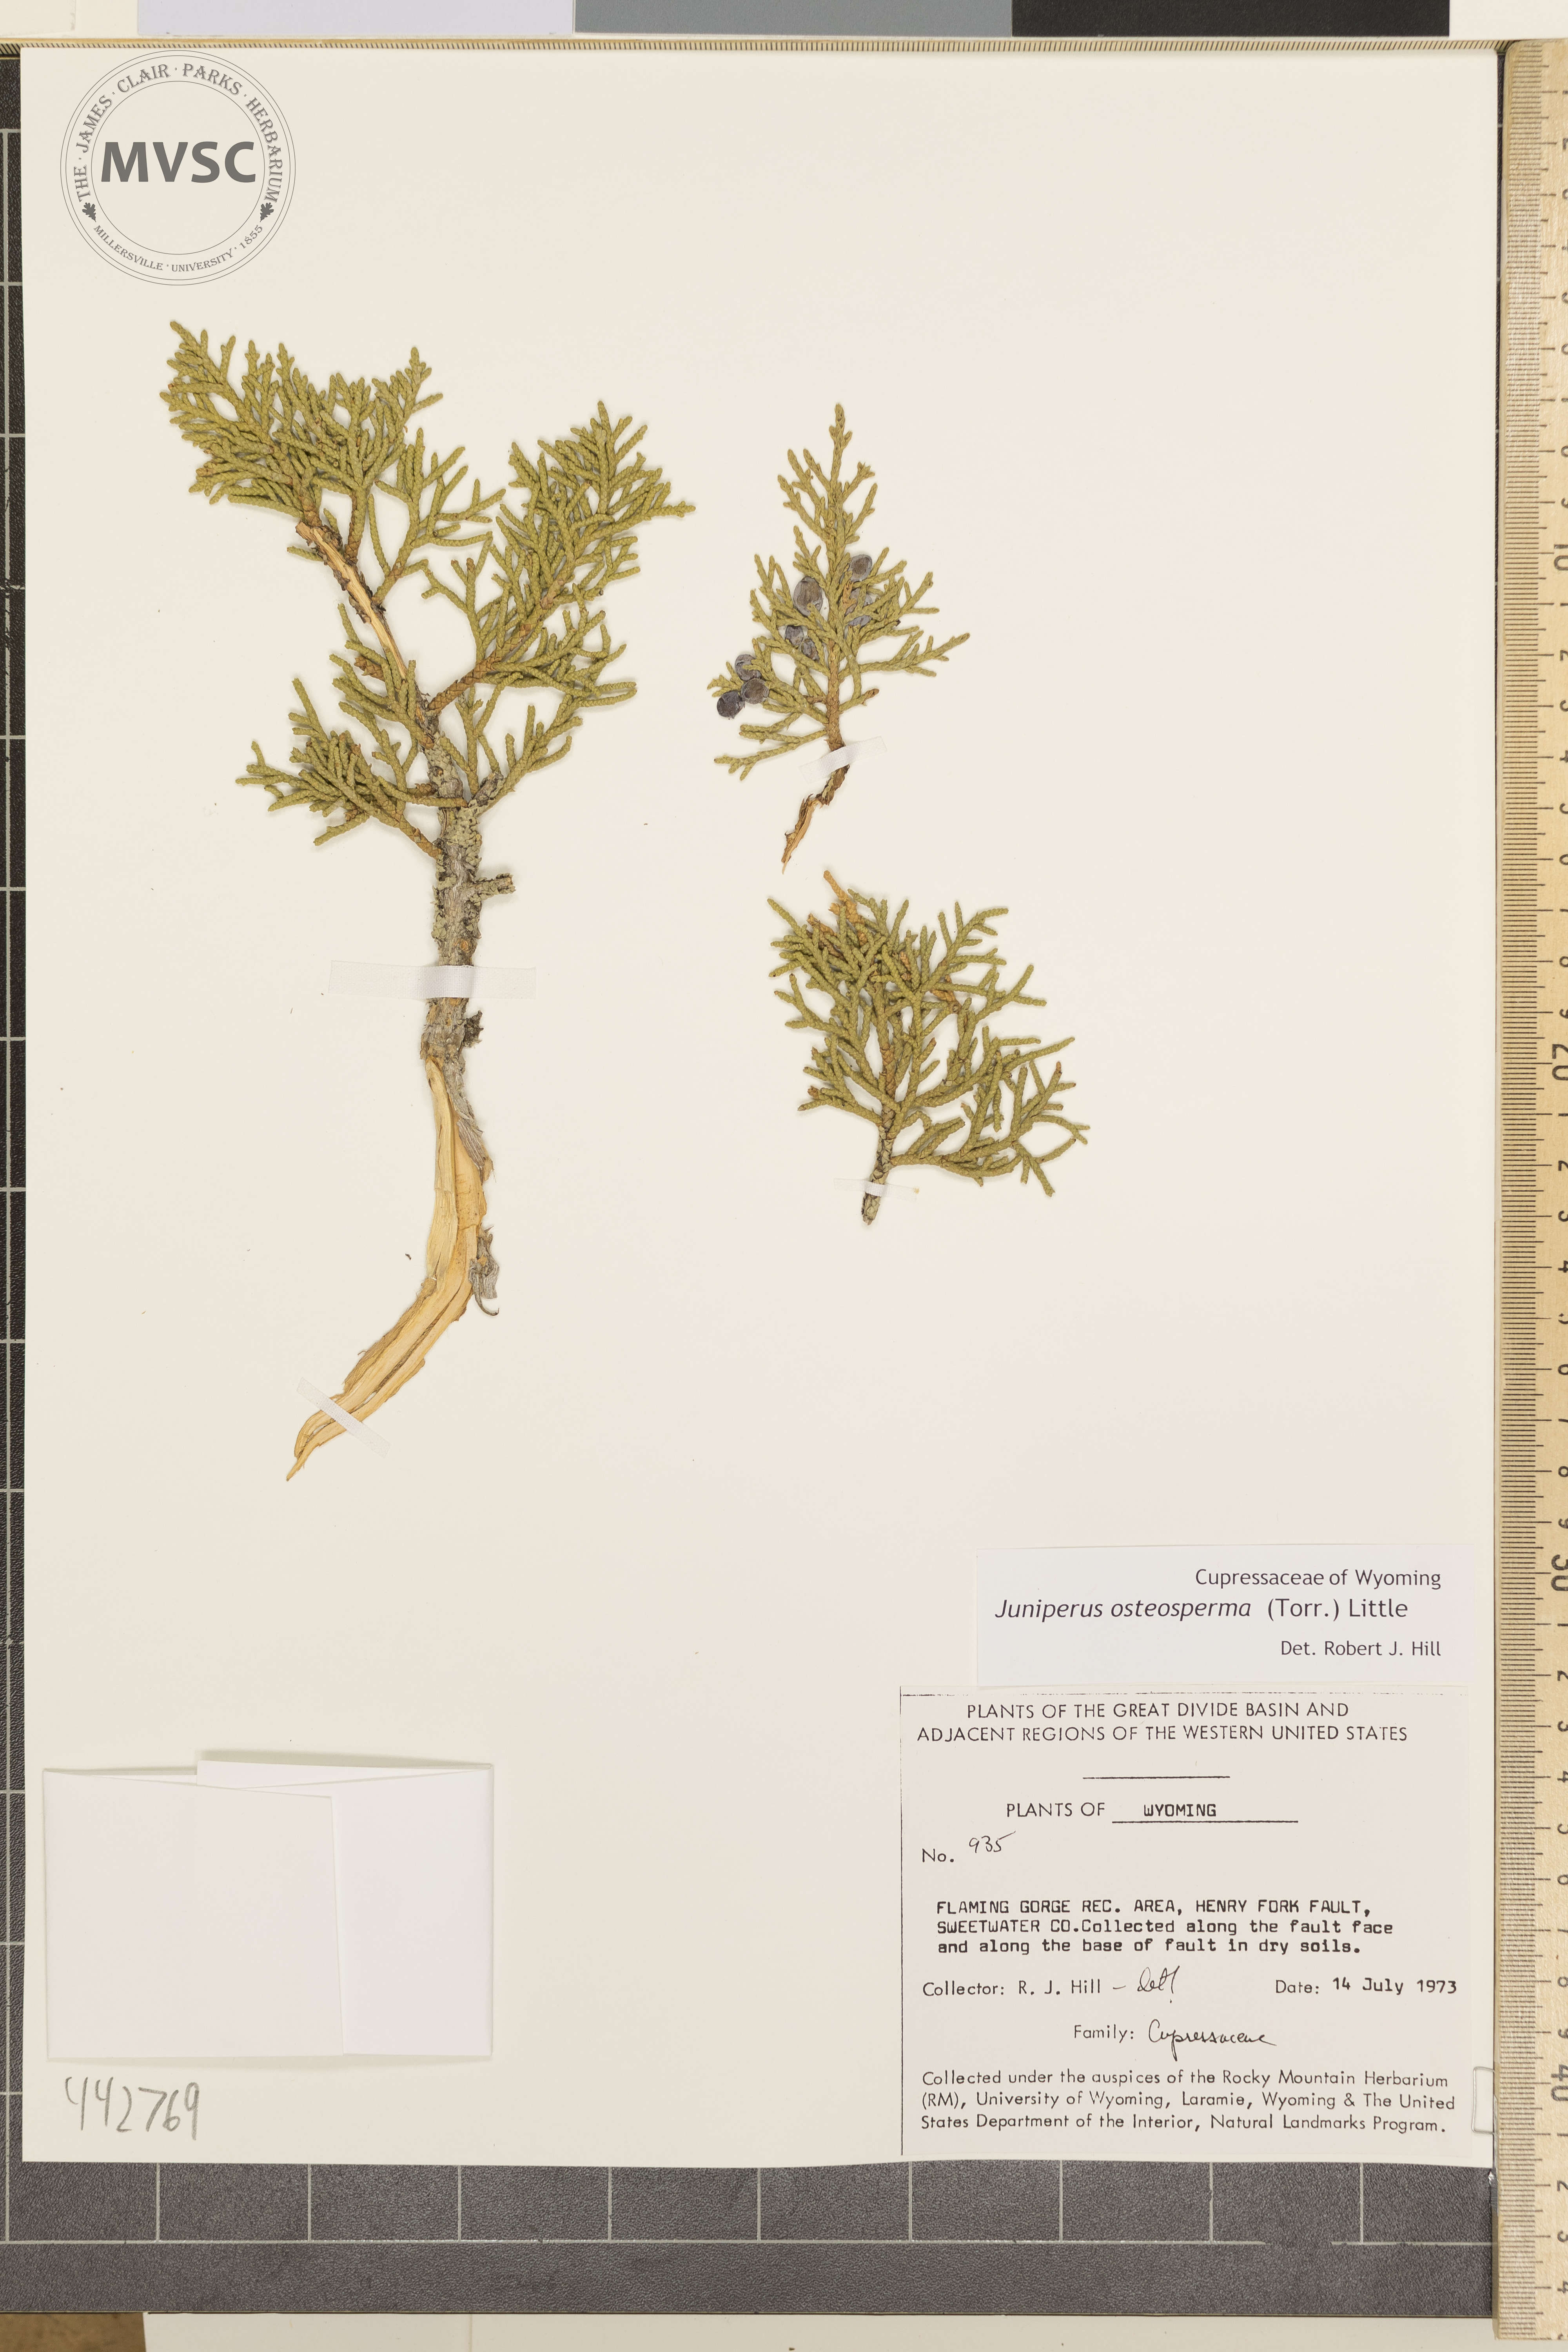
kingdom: Plantae
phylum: Tracheophyta
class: Pinopsida
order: Pinales
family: Cupressaceae
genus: Juniperus
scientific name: Juniperus osteosperma
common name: Utah juniper
